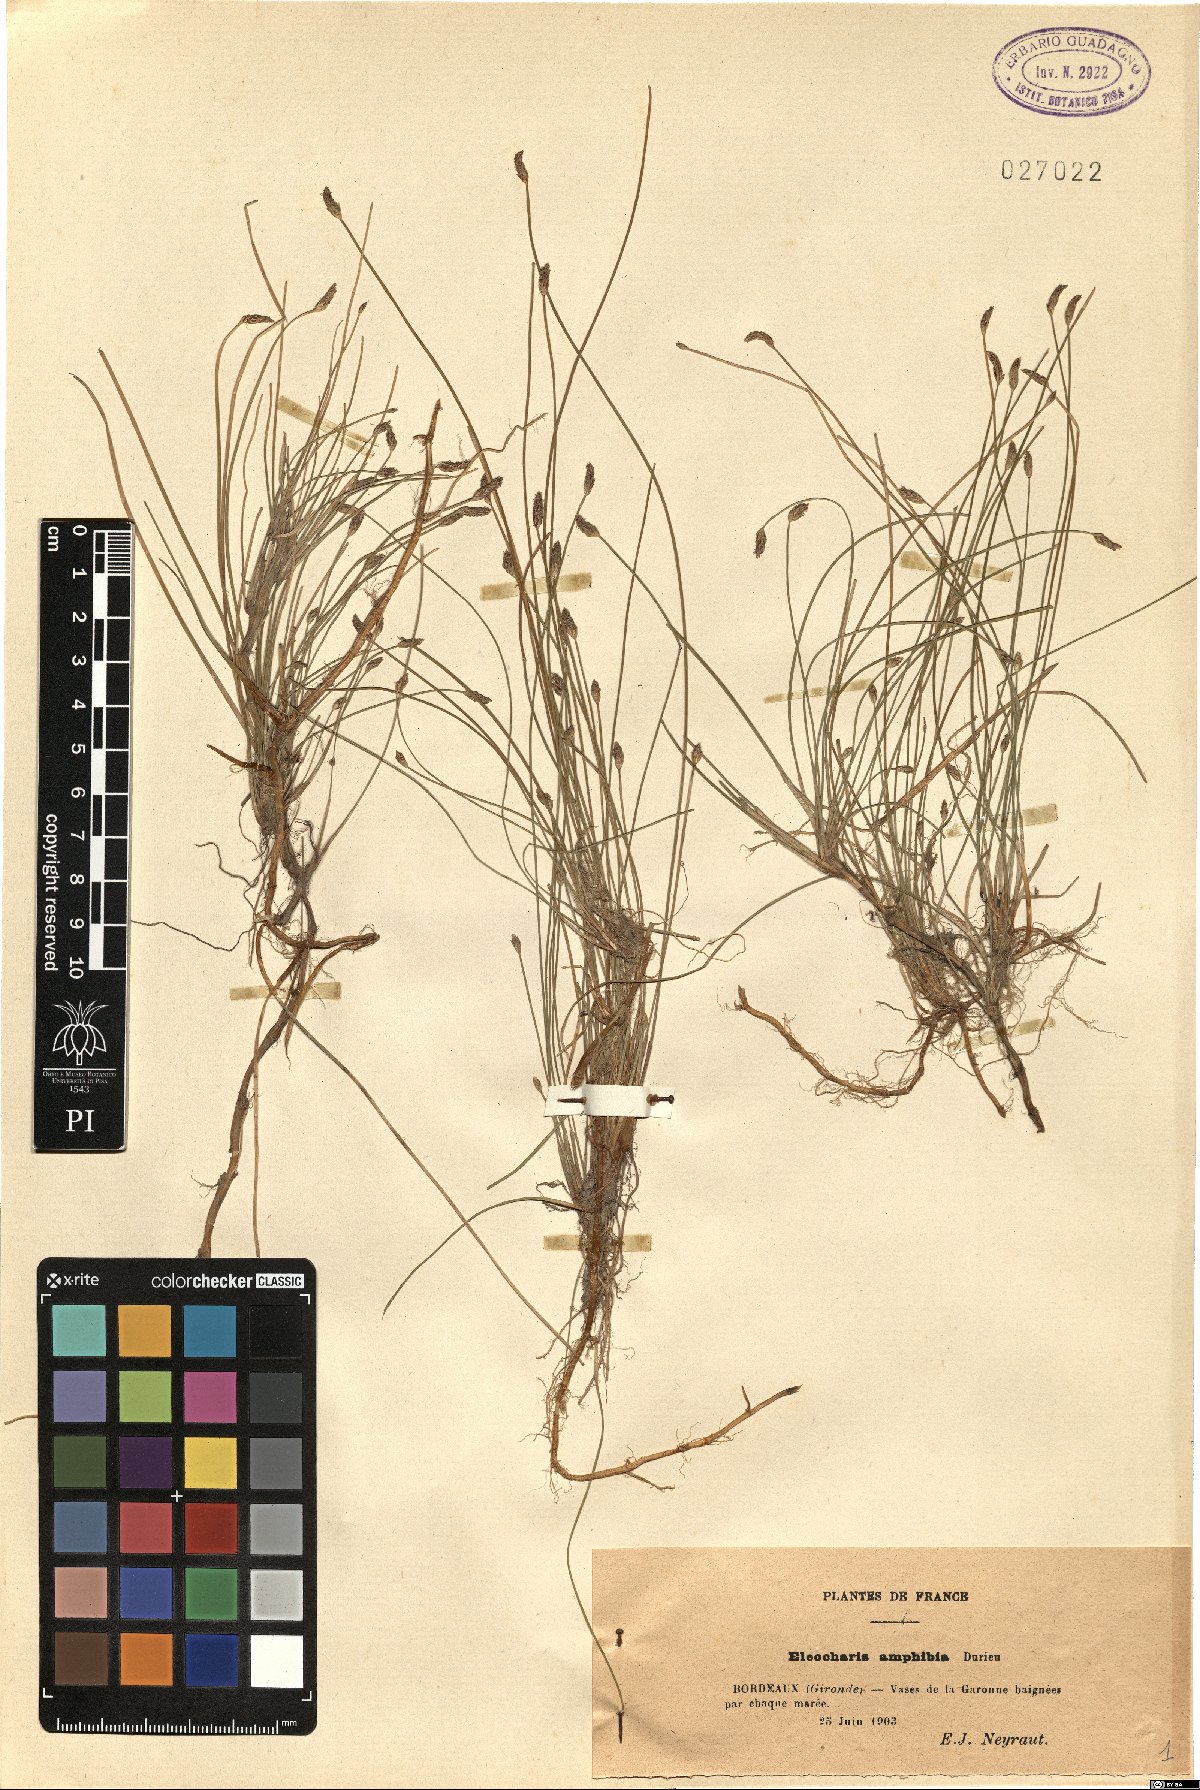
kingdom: Plantae
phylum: Tracheophyta
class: Liliopsida
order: Poales
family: Cyperaceae
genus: Eleocharis
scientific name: Eleocharis bonariensis
